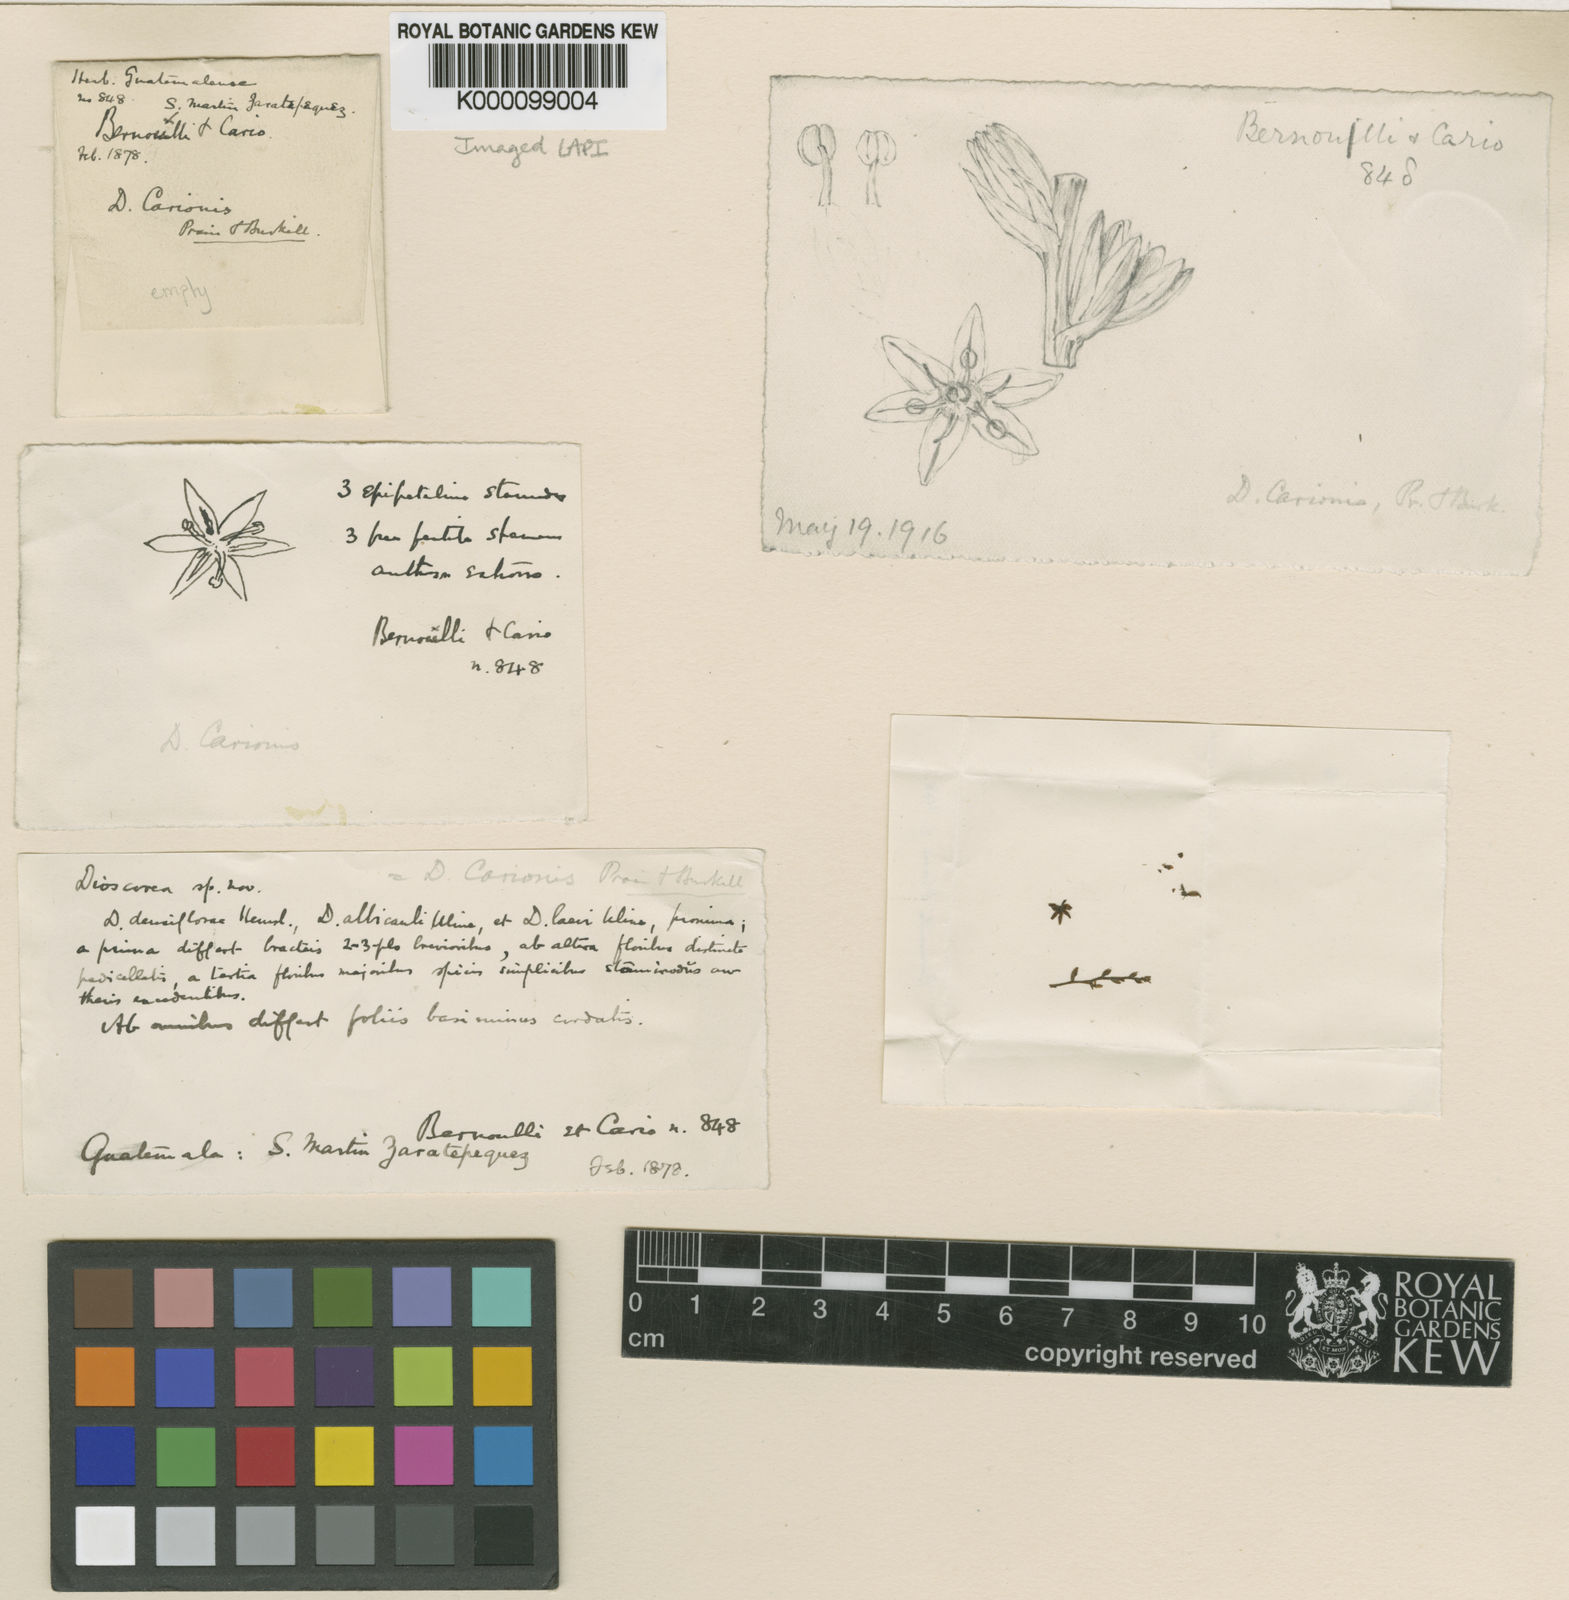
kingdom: Plantae
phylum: Tracheophyta
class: Liliopsida
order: Dioscoreales
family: Dioscoreaceae
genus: Dioscorea
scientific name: Dioscorea carionis
